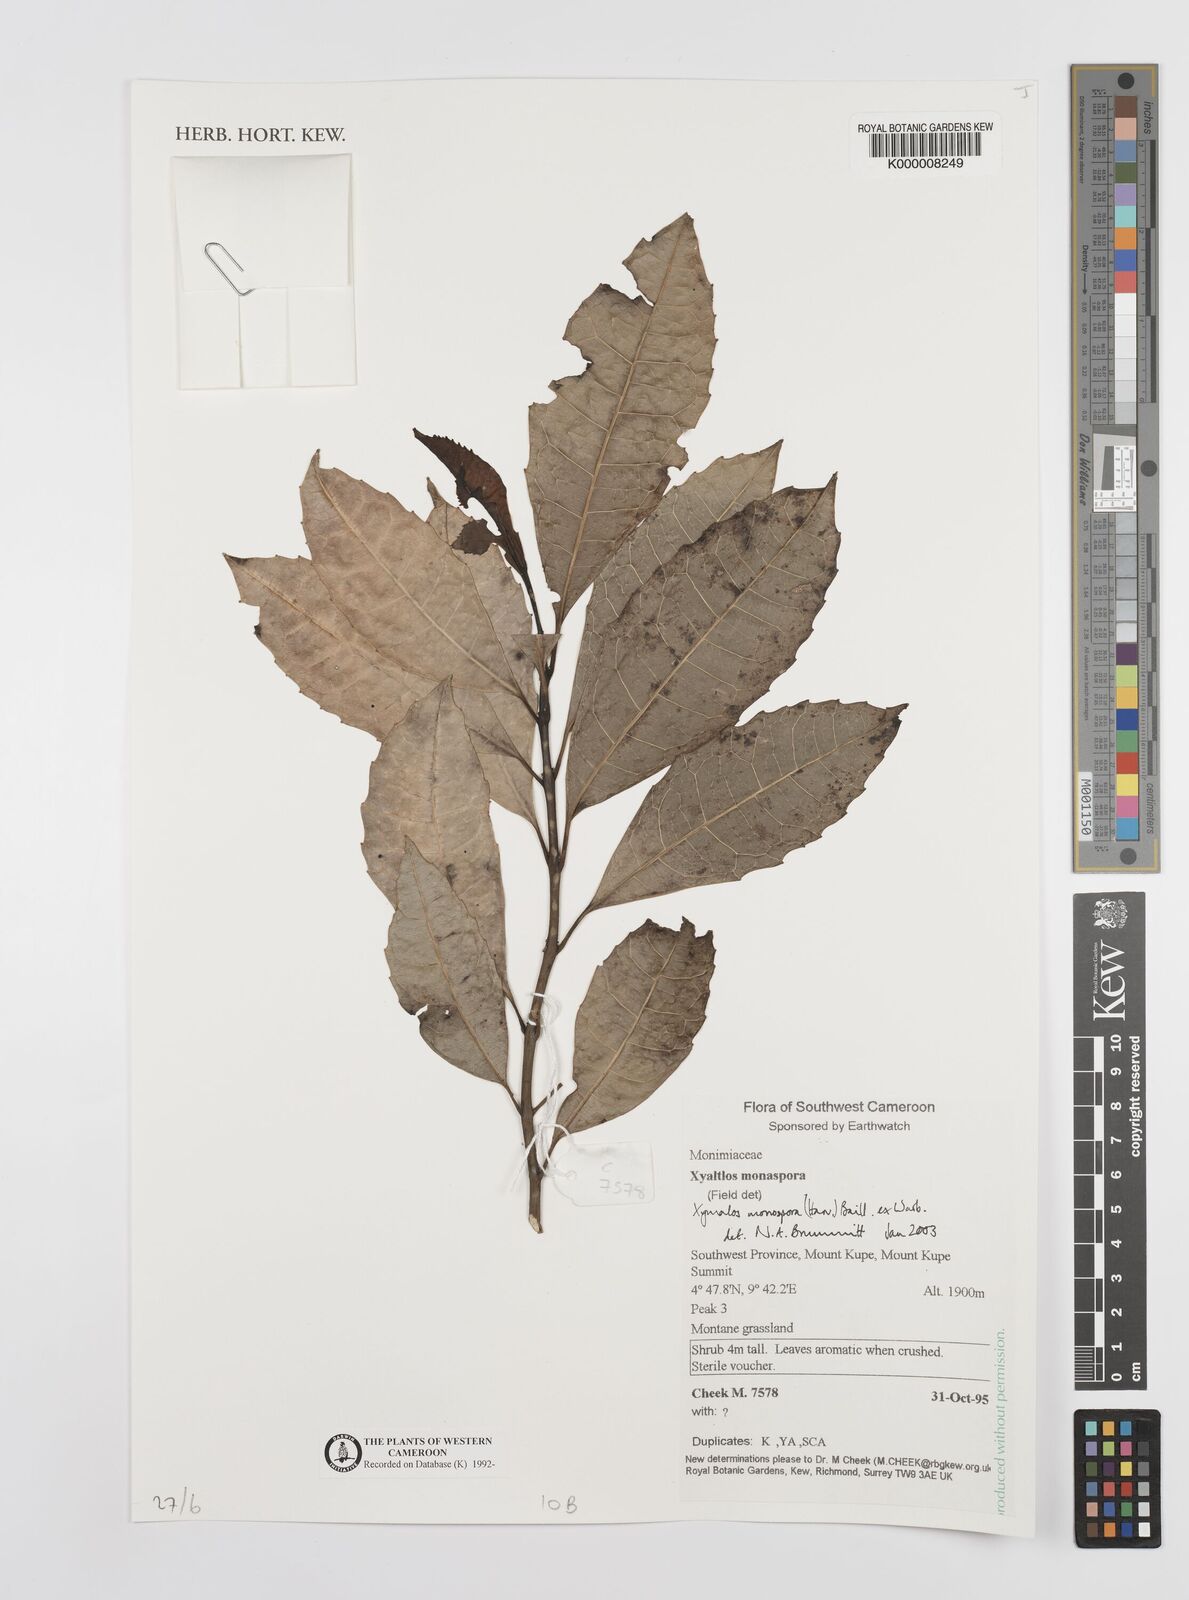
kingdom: Plantae
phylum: Tracheophyta
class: Magnoliopsida
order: Laurales
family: Monimiaceae
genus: Xymalos
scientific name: Xymalos
